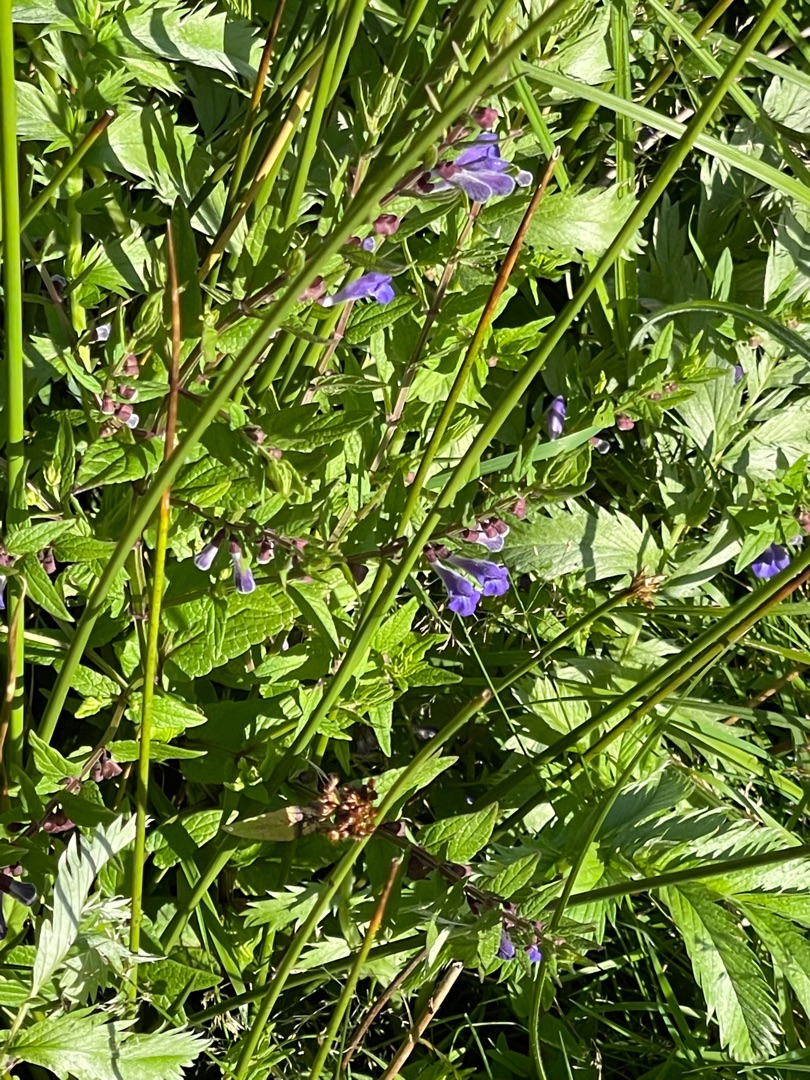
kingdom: Plantae
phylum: Tracheophyta
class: Magnoliopsida
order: Lamiales
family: Lamiaceae
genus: Scutellaria
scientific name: Scutellaria galericulata
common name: Almindelig skjolddrager
